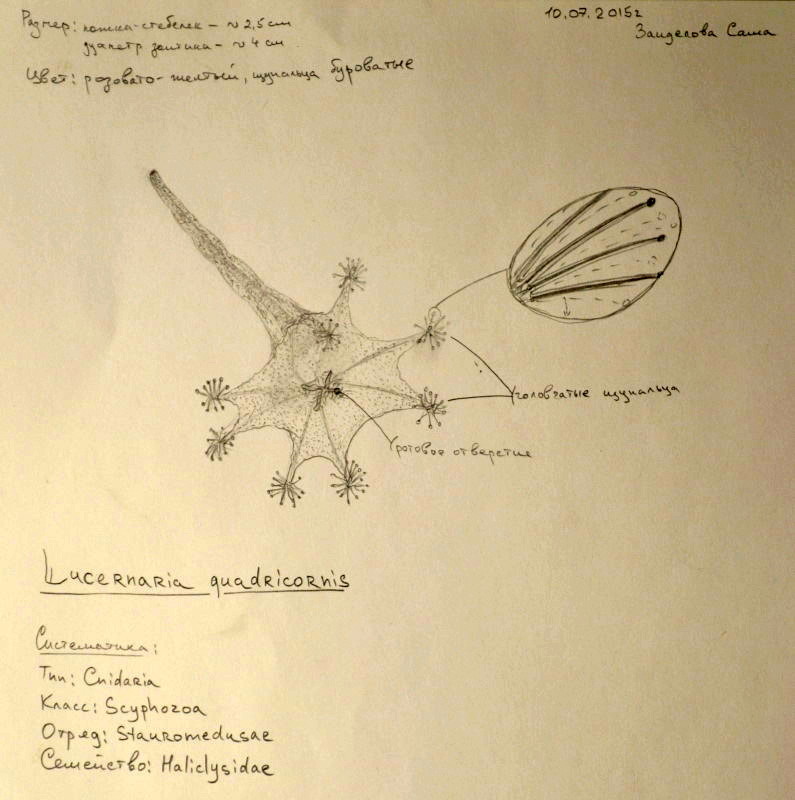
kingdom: Animalia
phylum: Cnidaria
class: Staurozoa
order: Stauromedusae
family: Lucernariidae
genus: Lucernaria
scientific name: Lucernaria quadricornis
